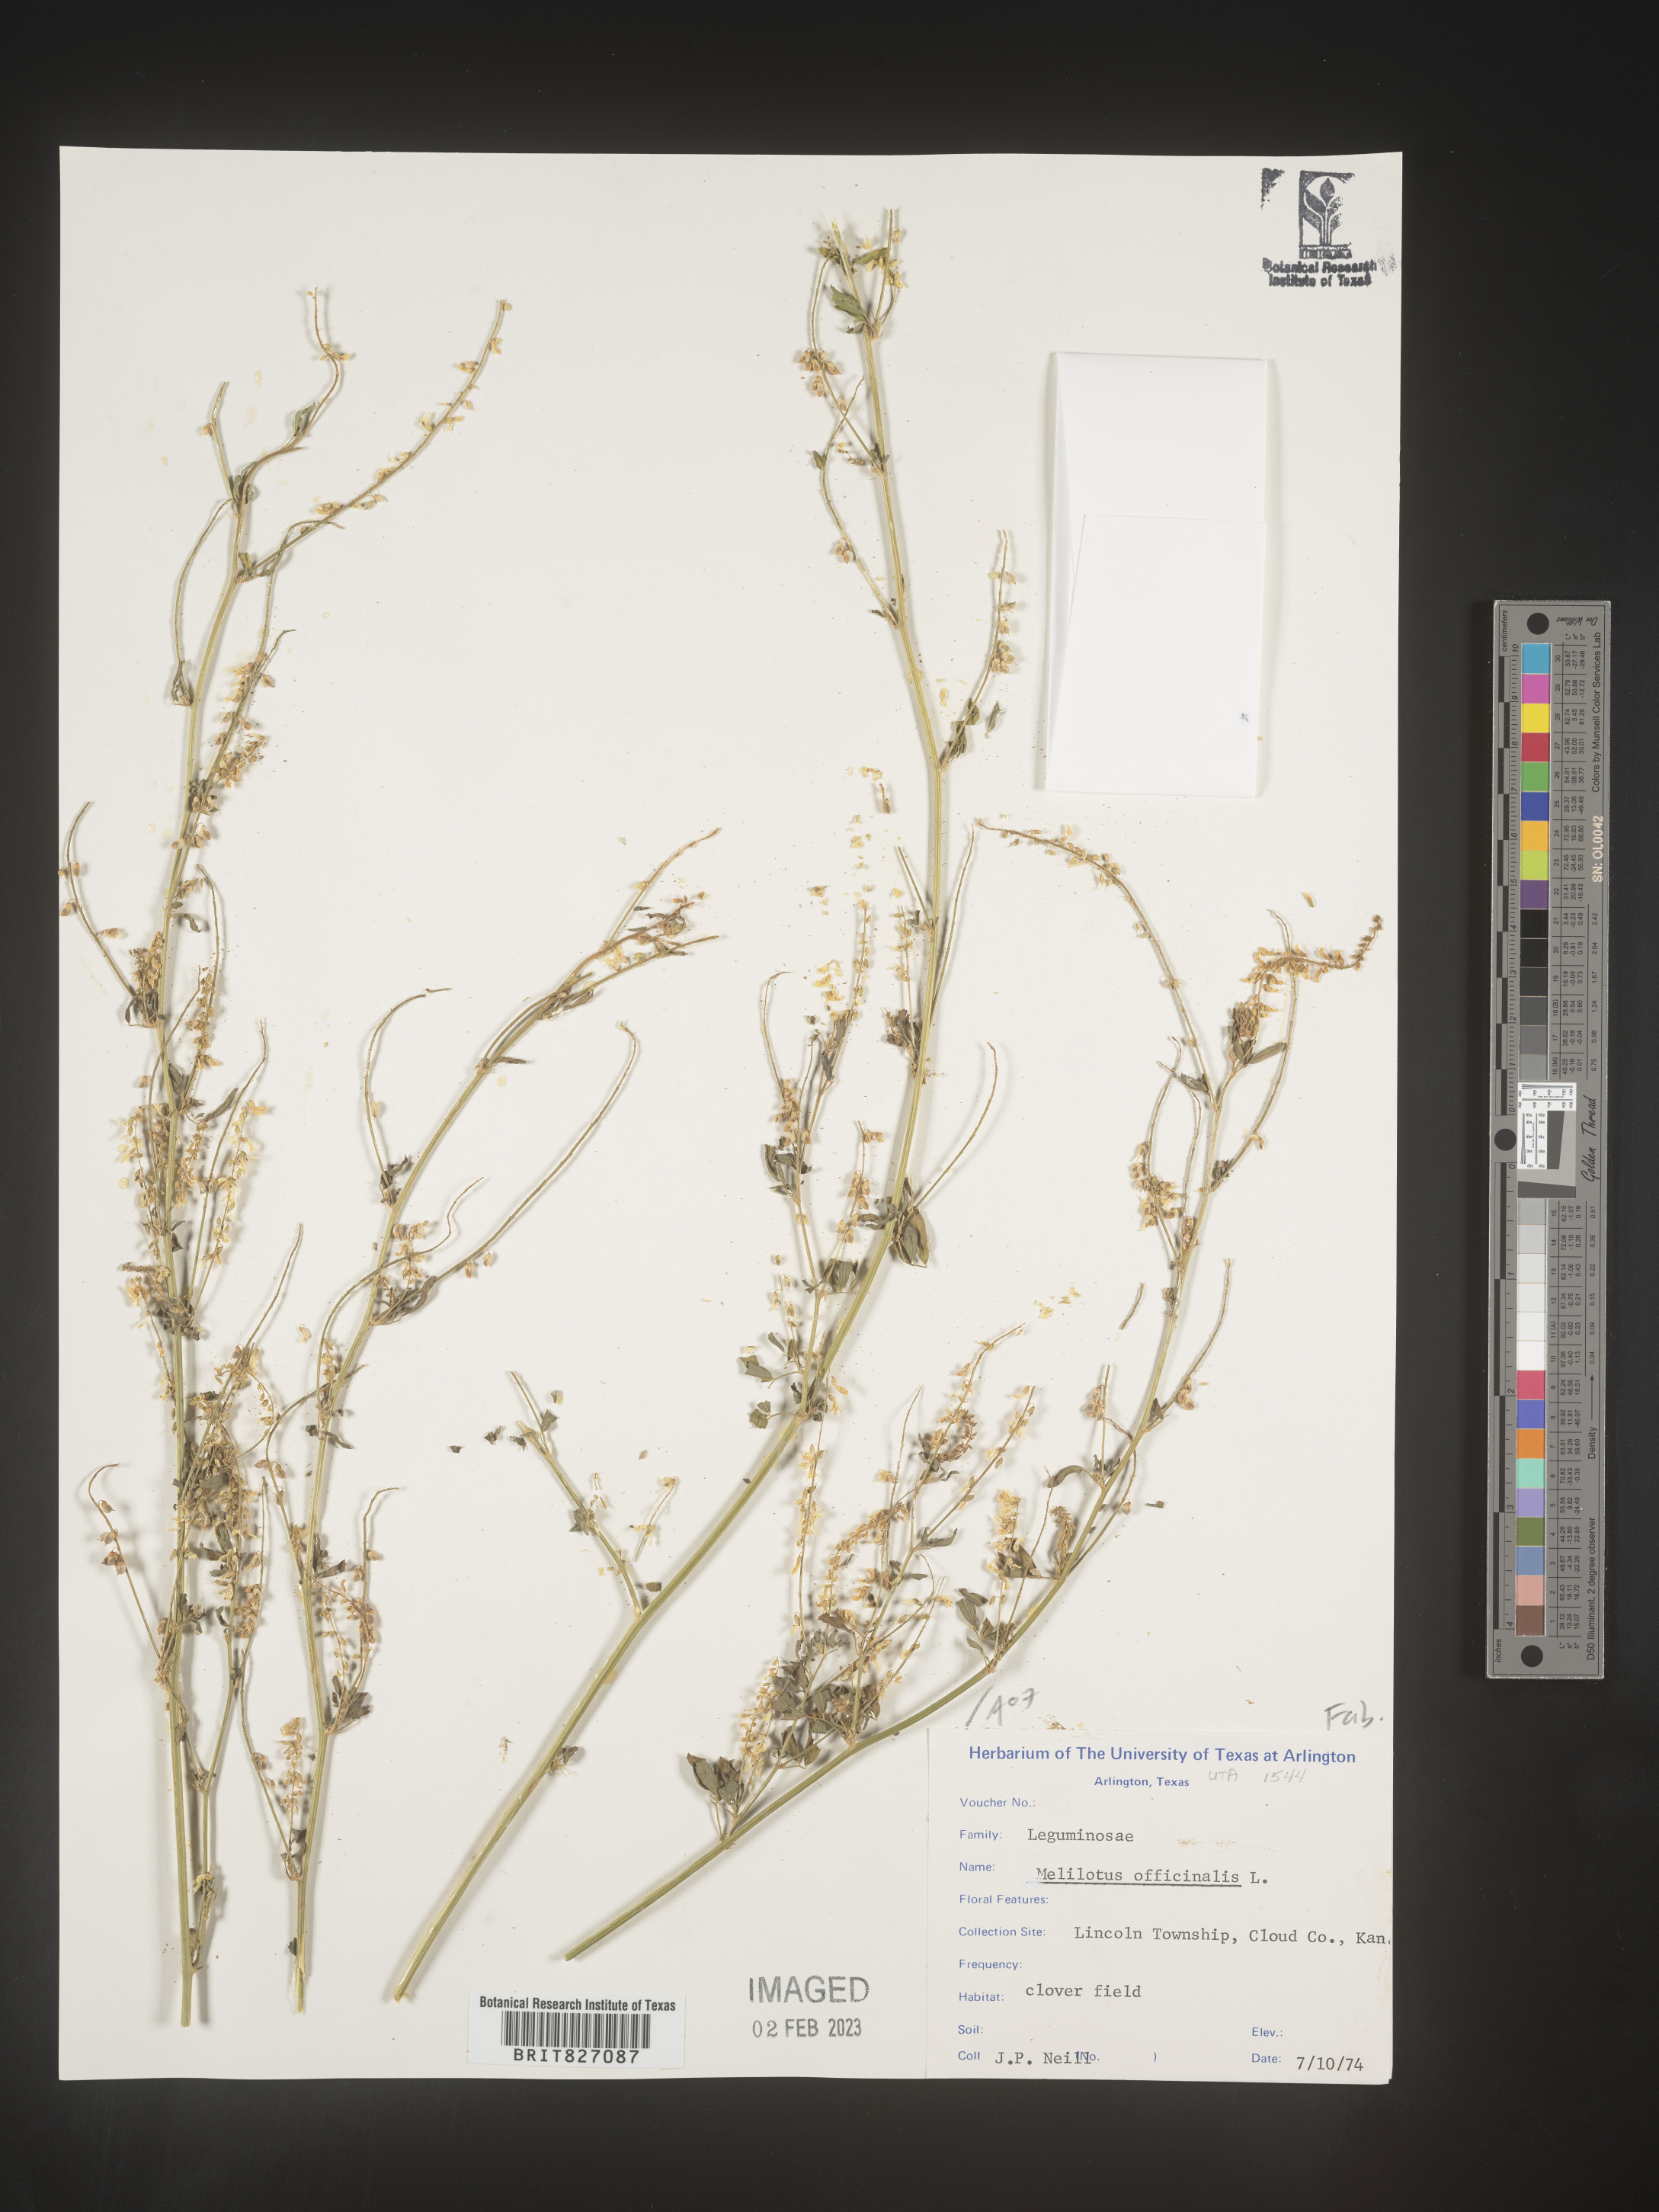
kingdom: Plantae
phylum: Tracheophyta
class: Magnoliopsida
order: Fabales
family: Fabaceae
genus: Melilotus
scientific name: Melilotus officinalis
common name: Sweetclover
